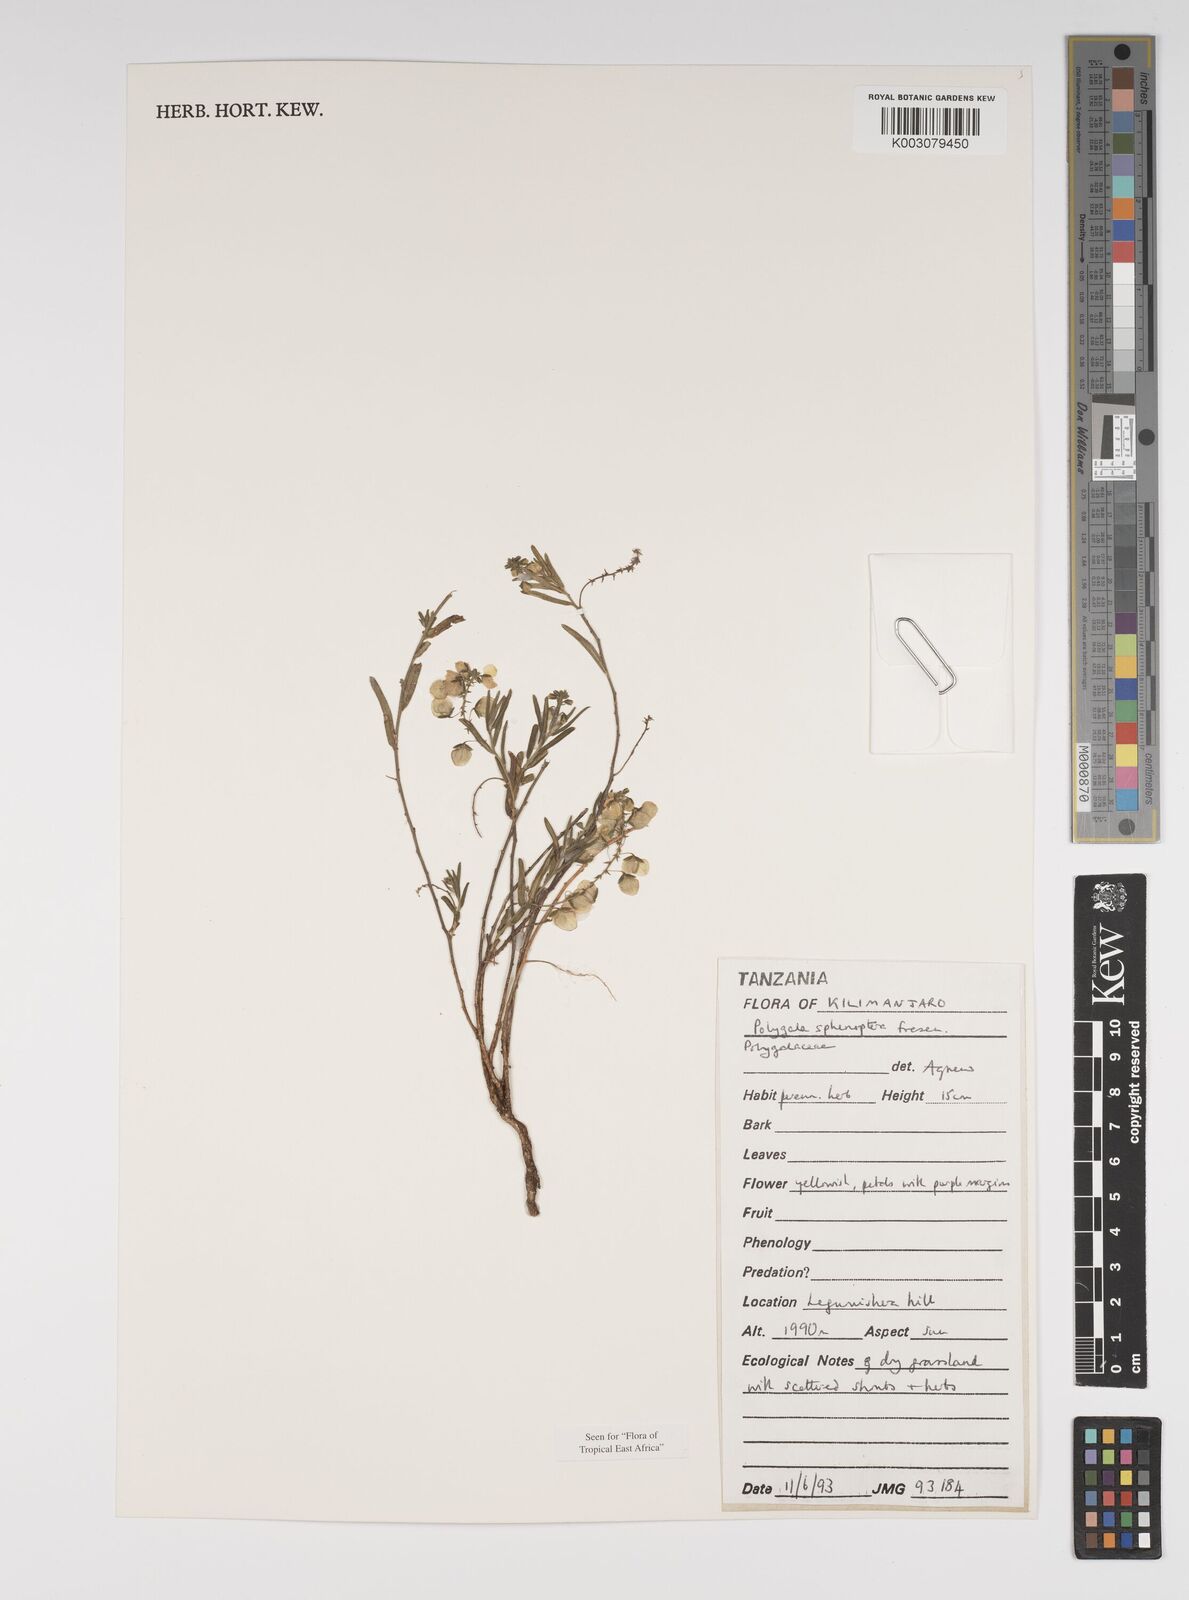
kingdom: Plantae
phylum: Tracheophyta
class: Magnoliopsida
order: Fabales
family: Polygalaceae
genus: Polygala
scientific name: Polygala sphenoptera
